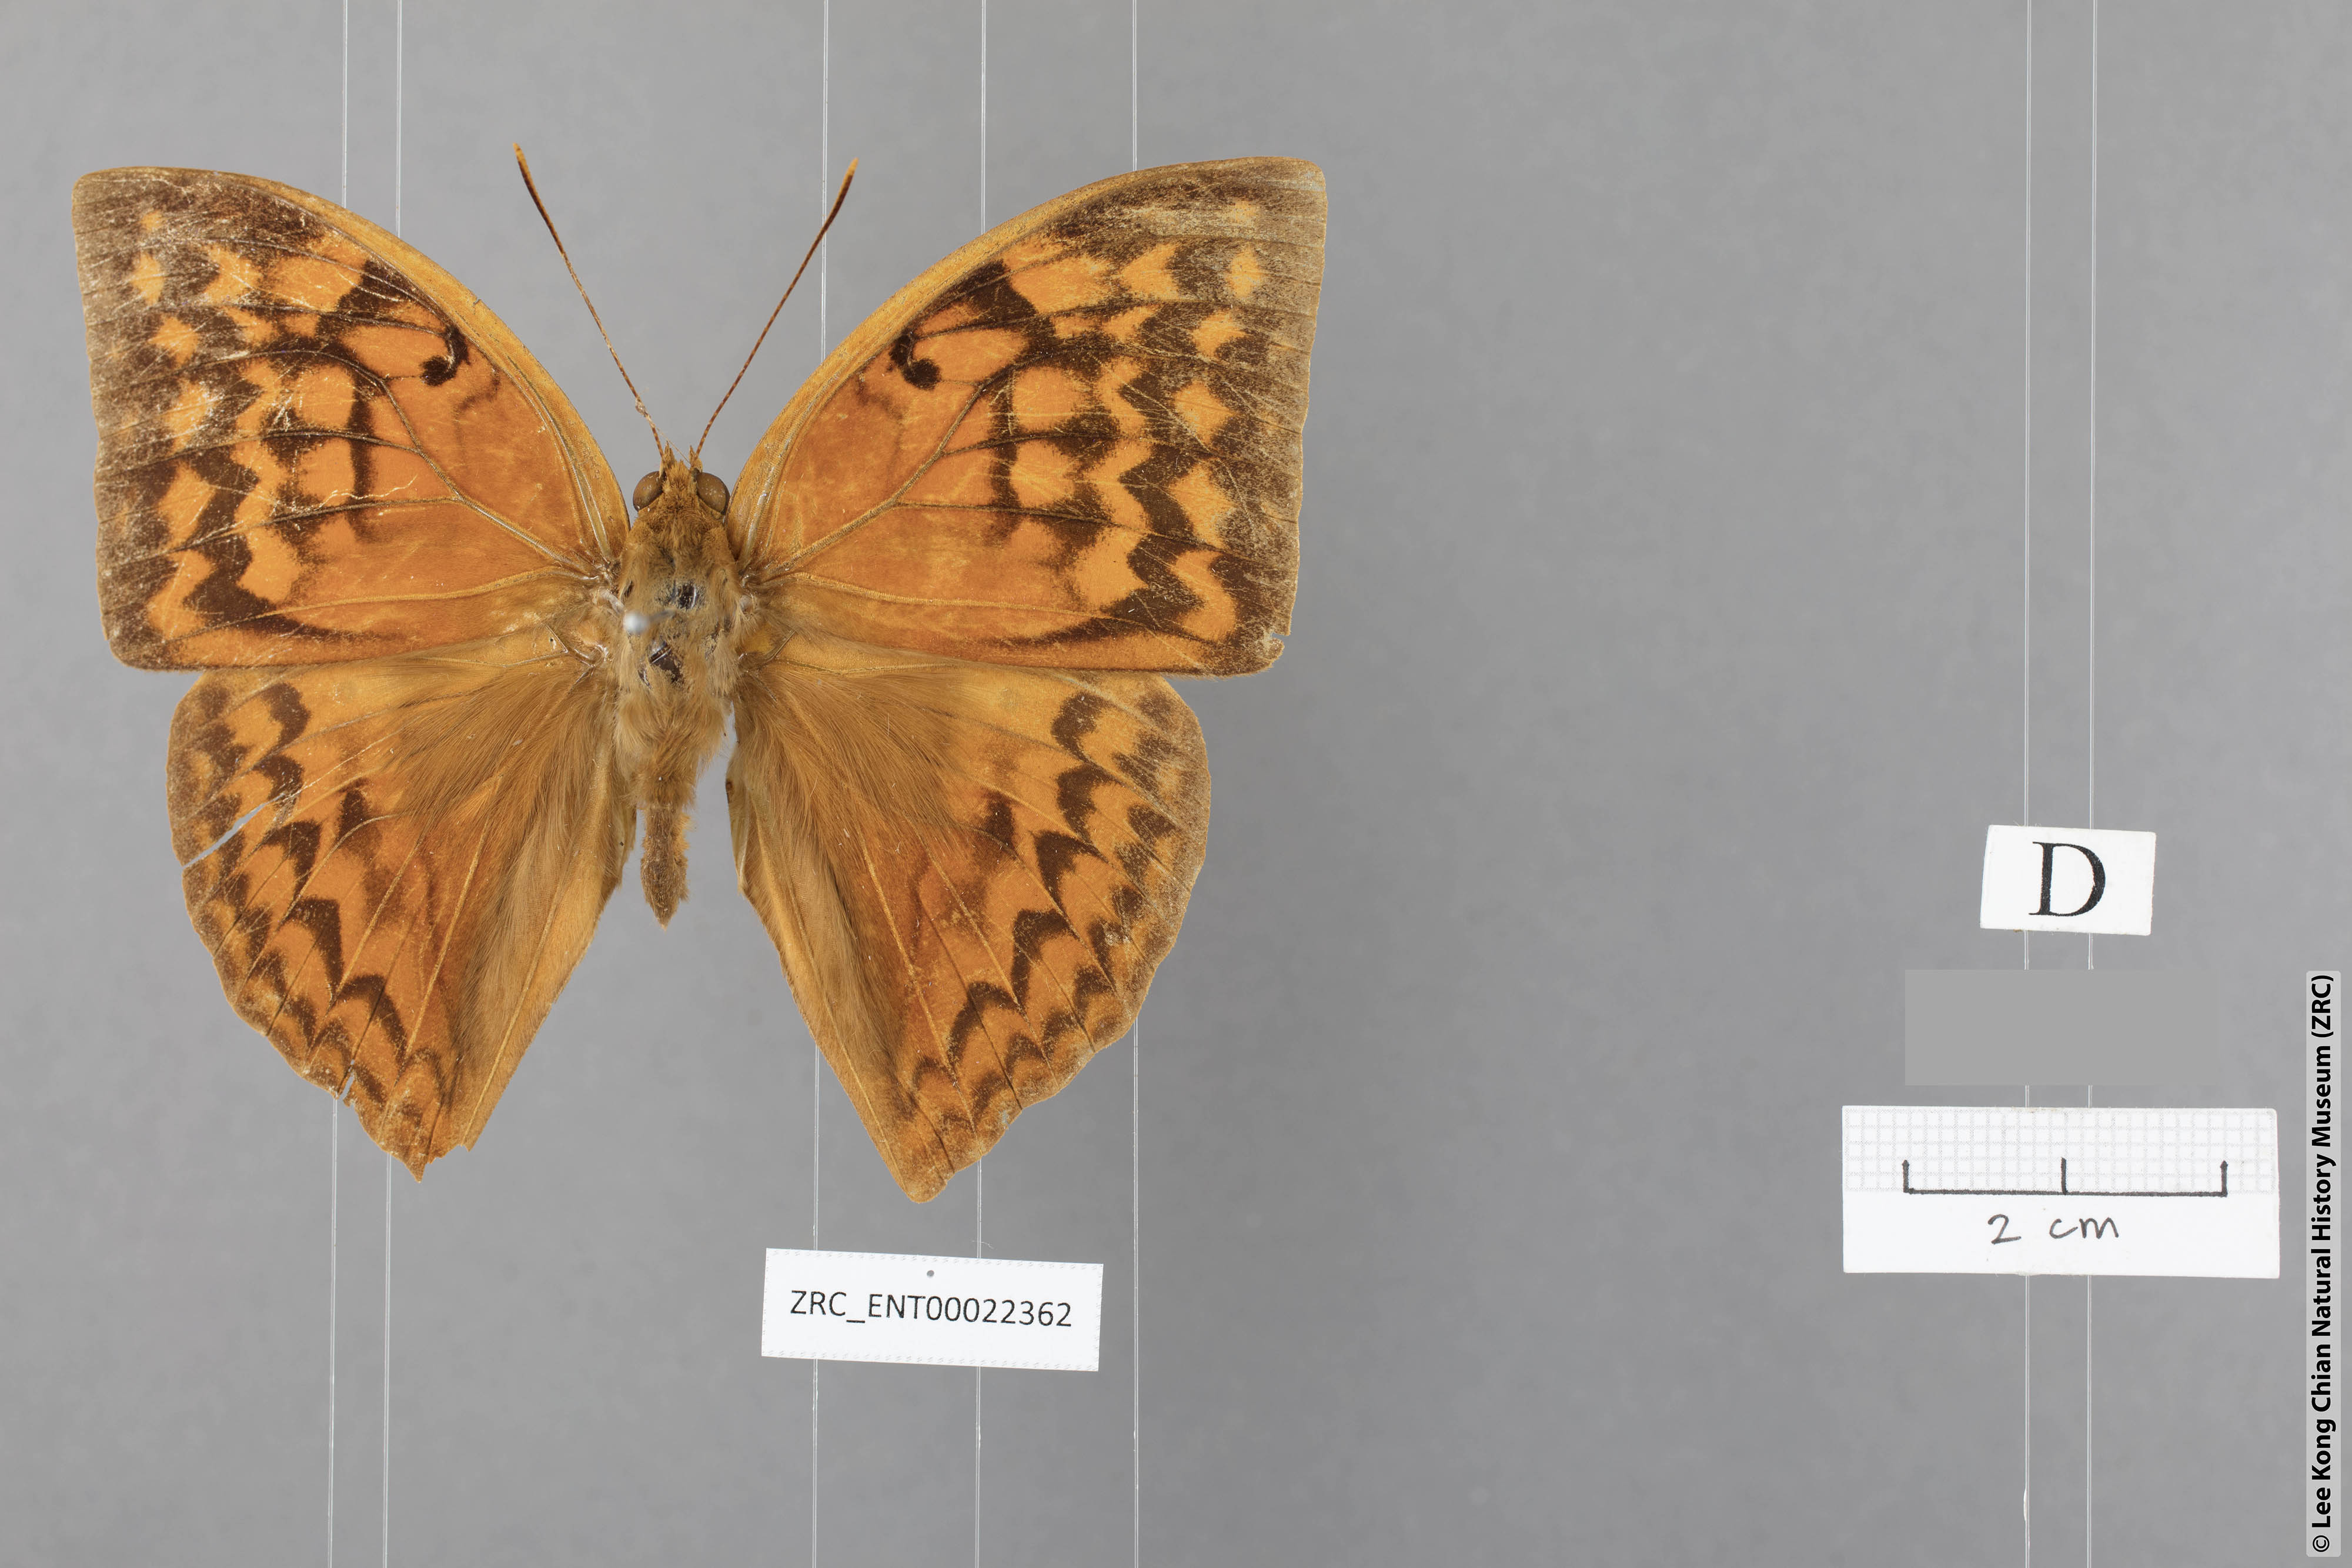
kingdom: Animalia
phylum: Arthropoda
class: Insecta
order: Lepidoptera
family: Nymphalidae
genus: Enispe
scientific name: Enispe intermedia
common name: Intermediate caliph
